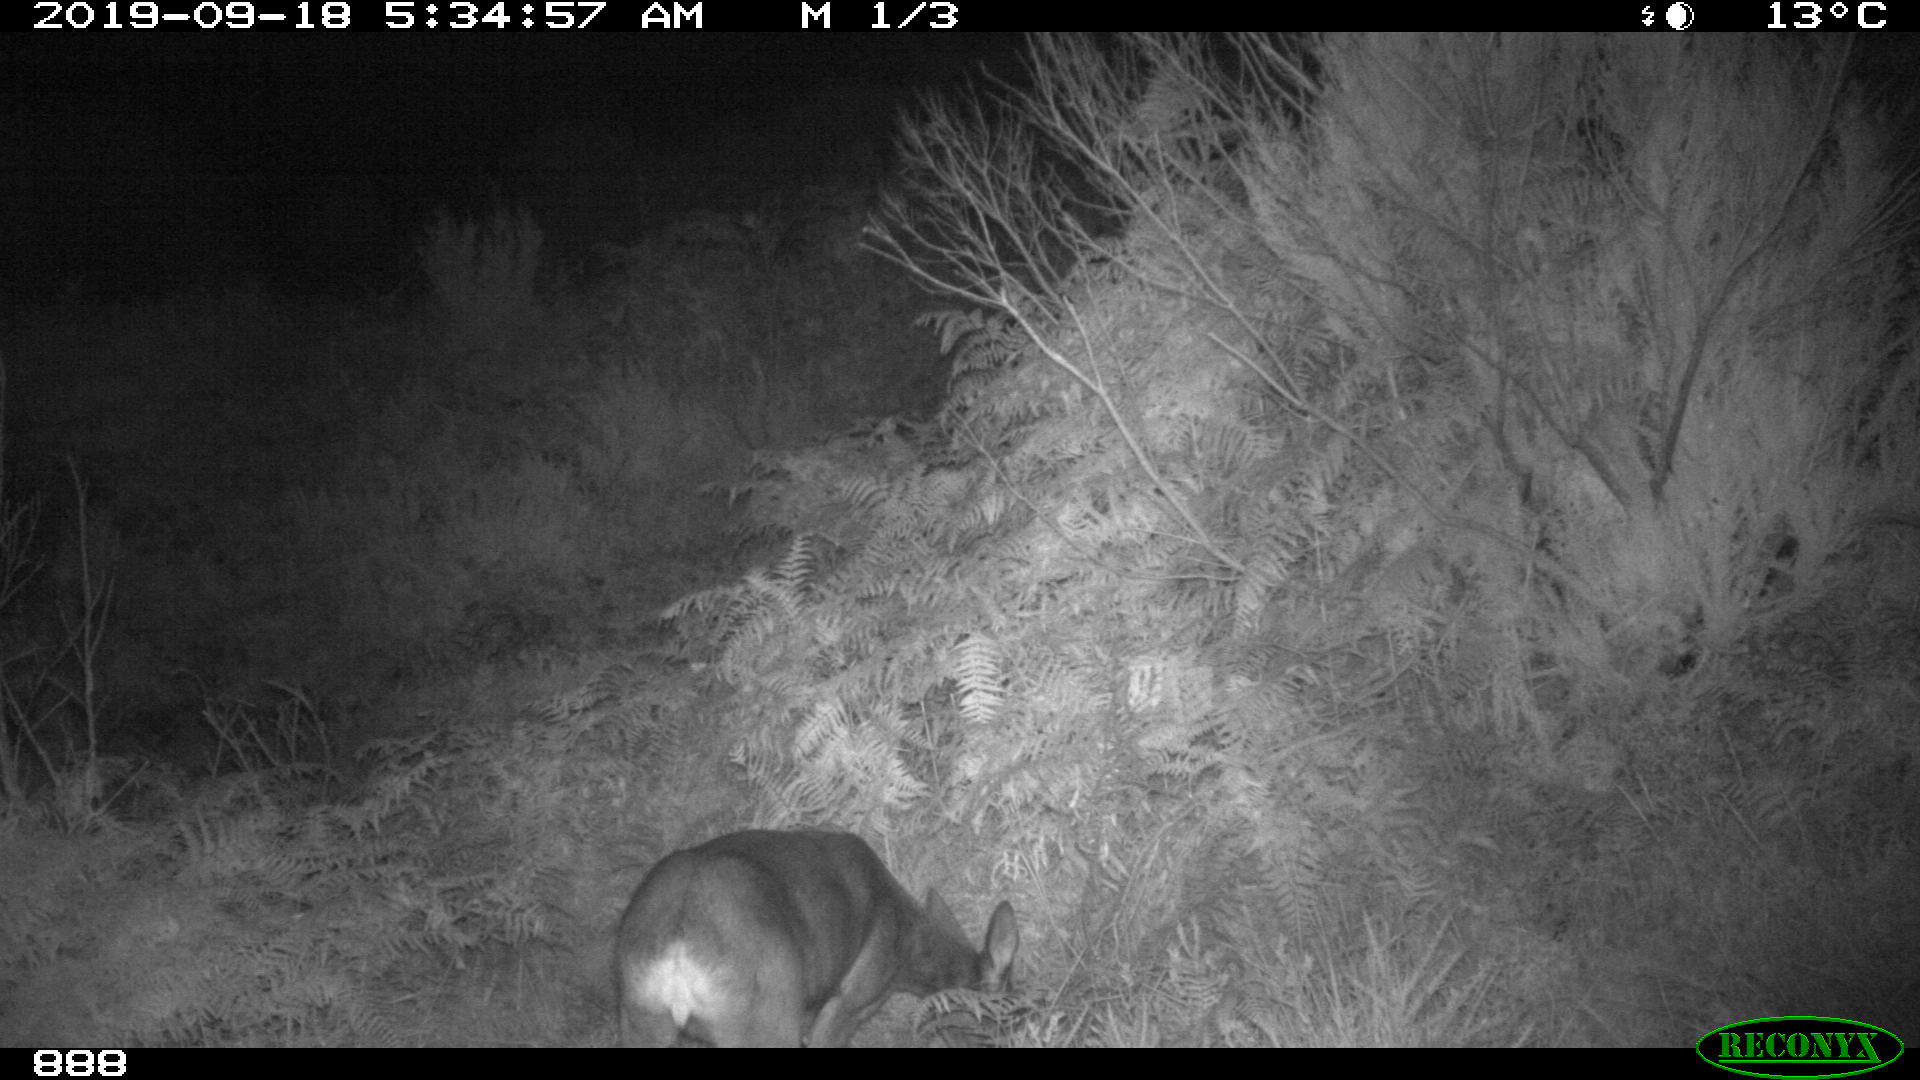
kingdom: Animalia
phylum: Chordata
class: Mammalia
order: Artiodactyla
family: Cervidae
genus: Capreolus
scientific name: Capreolus capreolus
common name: Western roe deer
